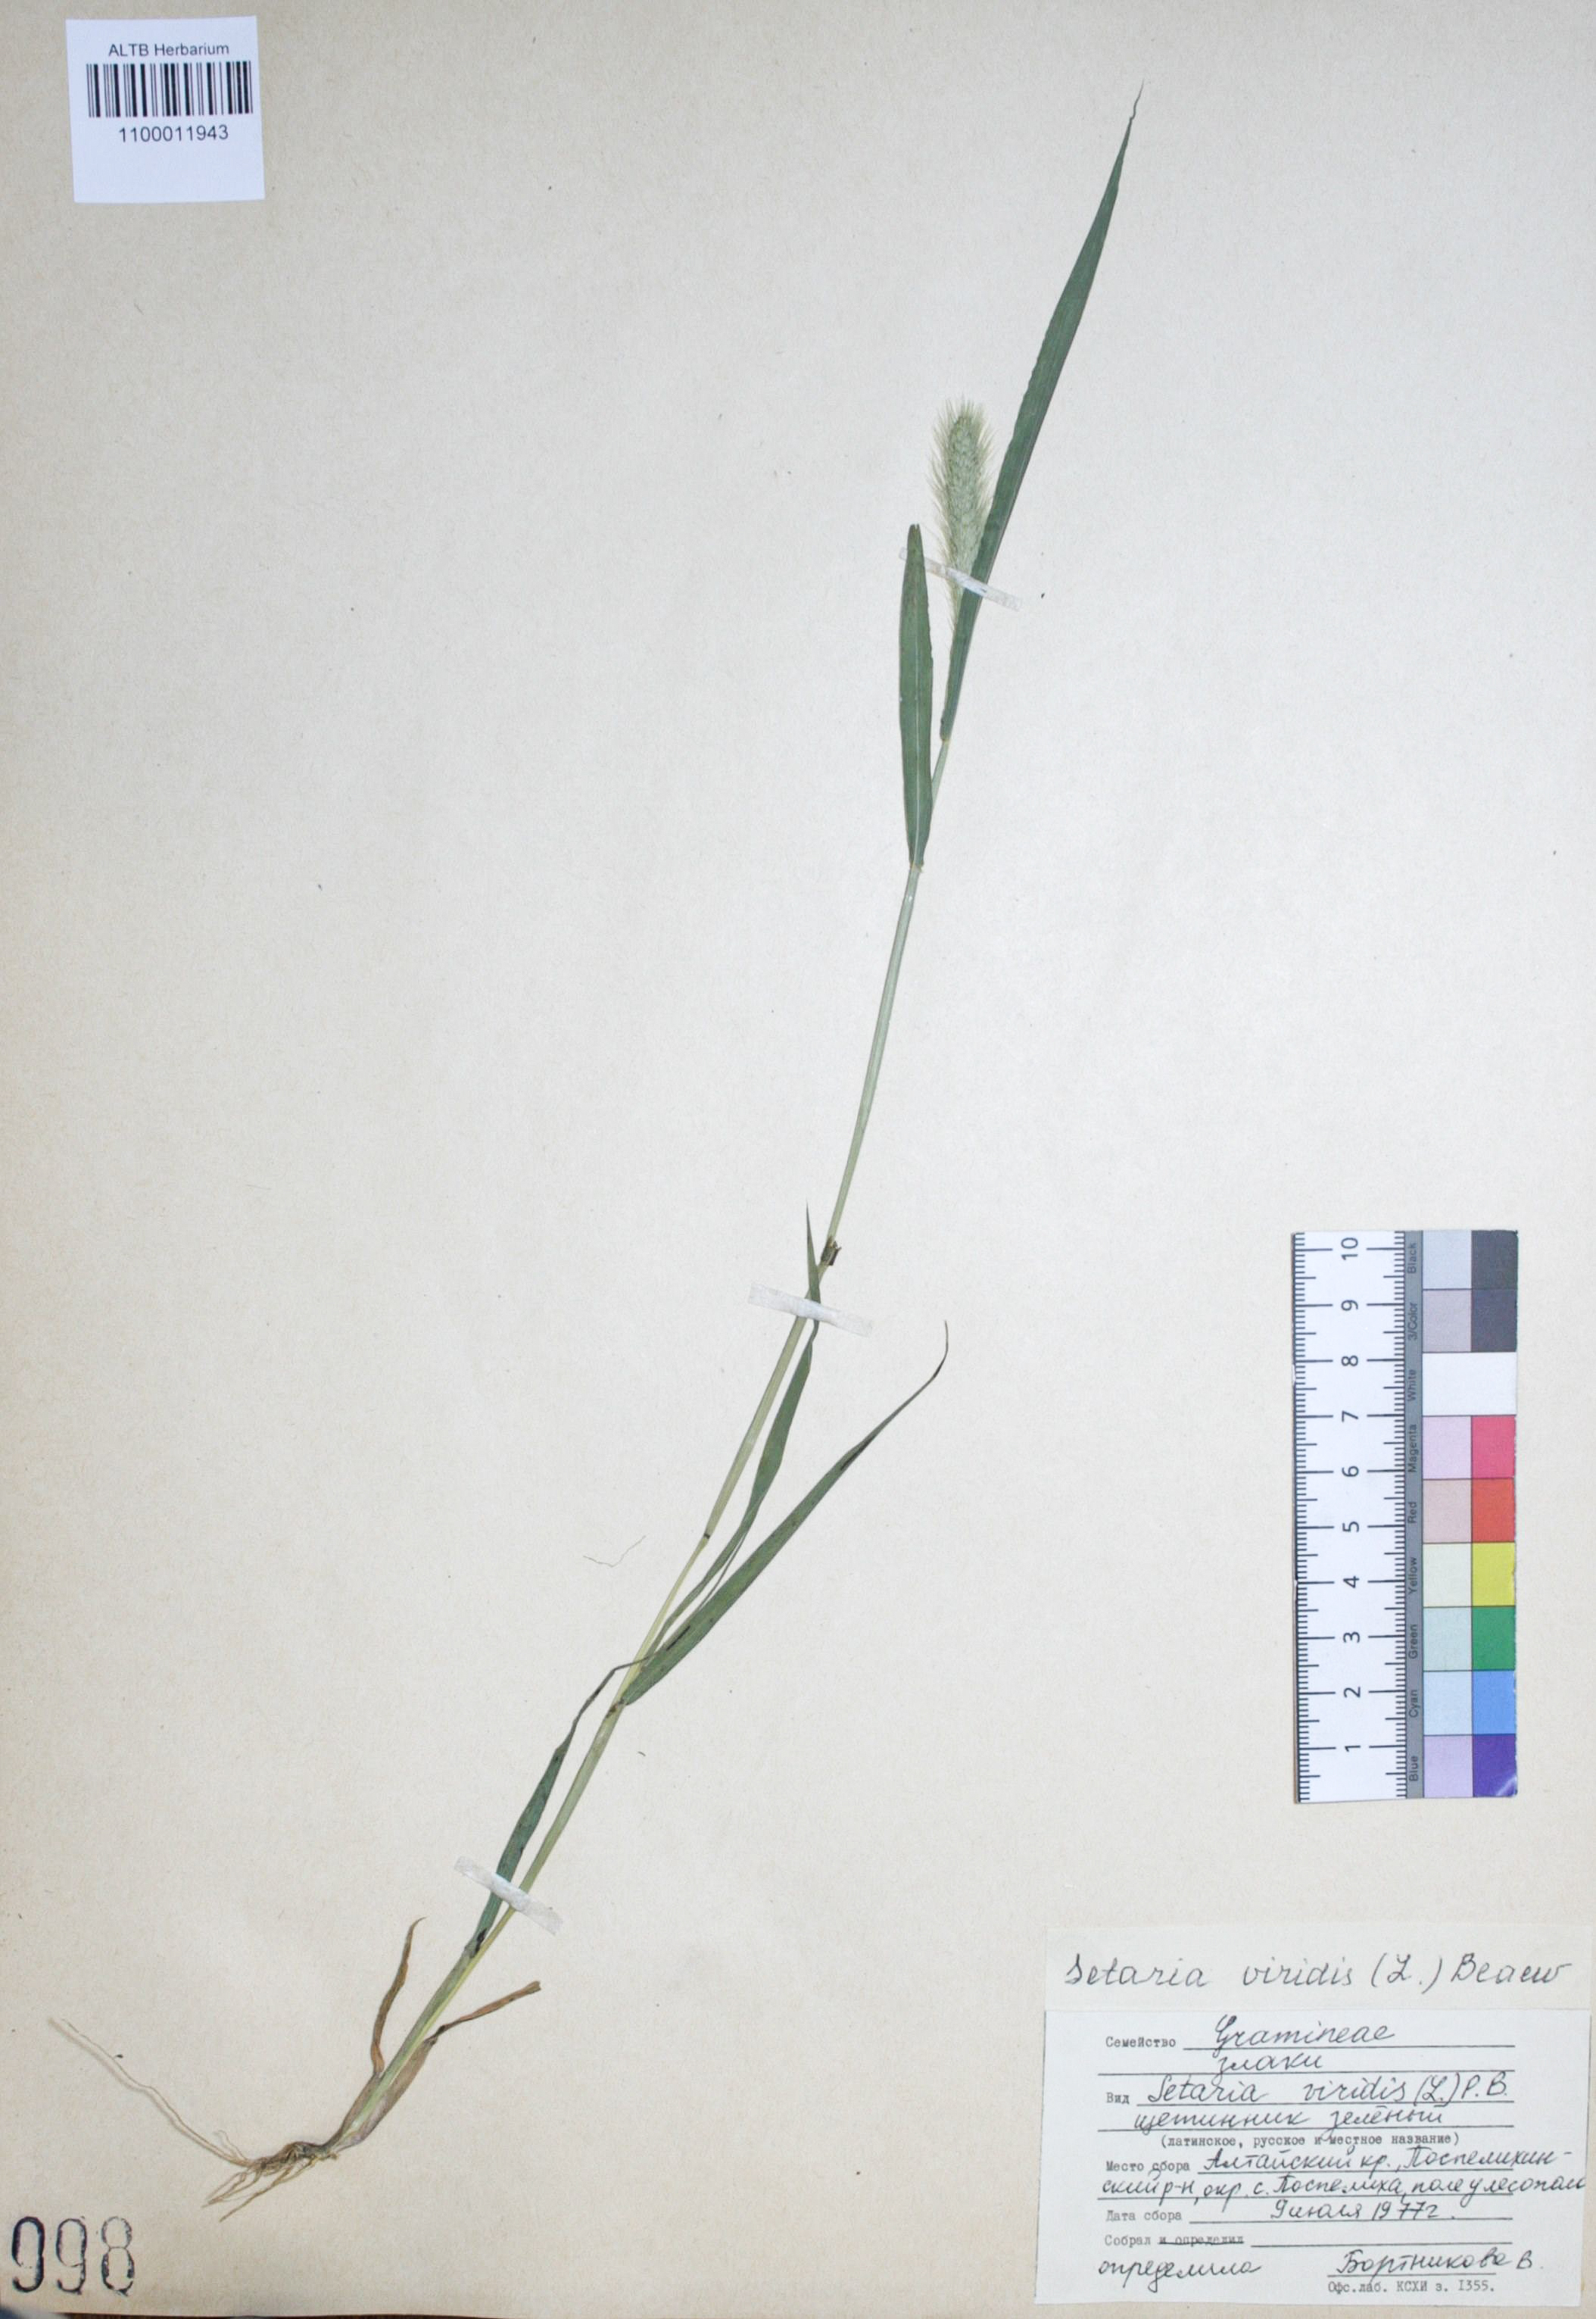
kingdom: Plantae
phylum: Tracheophyta
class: Liliopsida
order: Poales
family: Poaceae
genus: Setaria
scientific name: Setaria viridis
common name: Green bristlegrass
